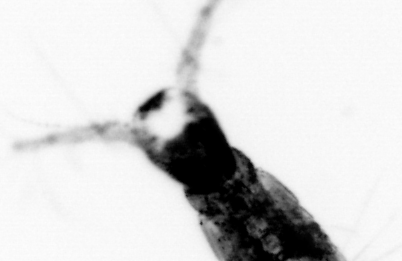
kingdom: Animalia
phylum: Arthropoda
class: Copepoda
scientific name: Copepoda
